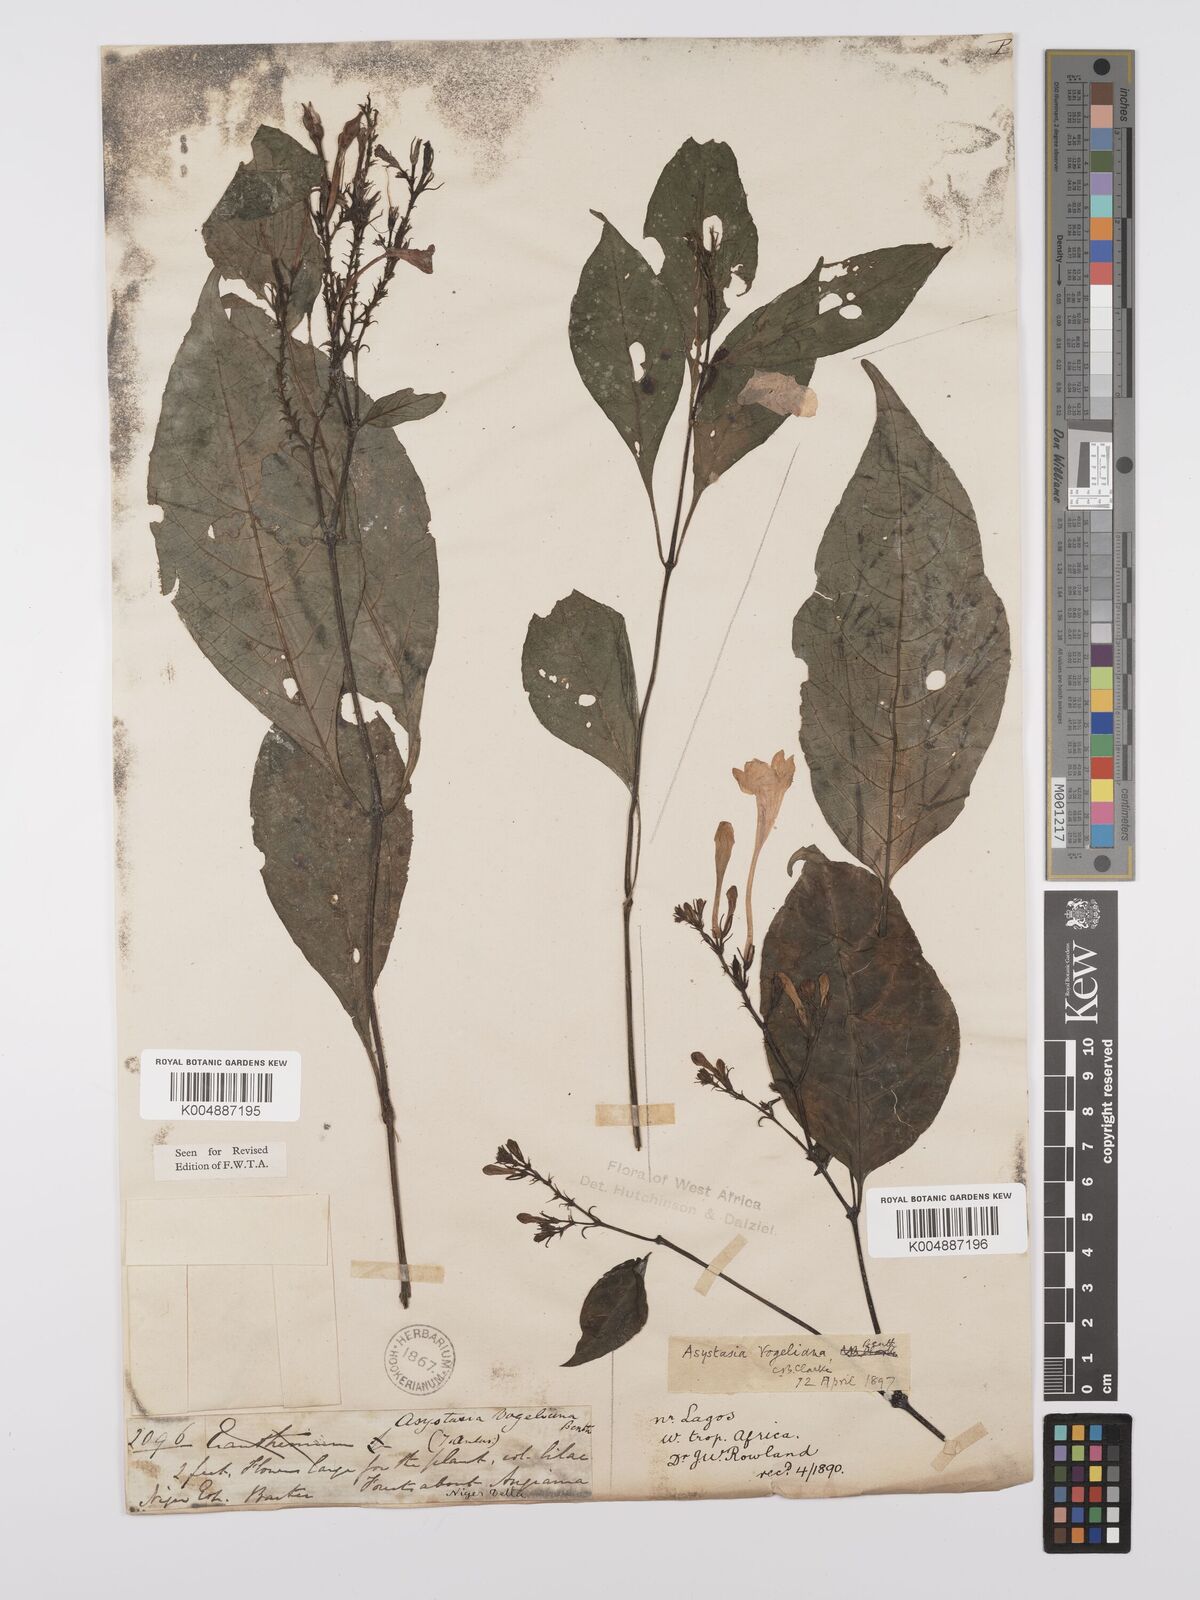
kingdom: Plantae
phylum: Tracheophyta
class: Magnoliopsida
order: Lamiales
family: Acanthaceae
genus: Asystasia
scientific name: Asystasia vogeliana
